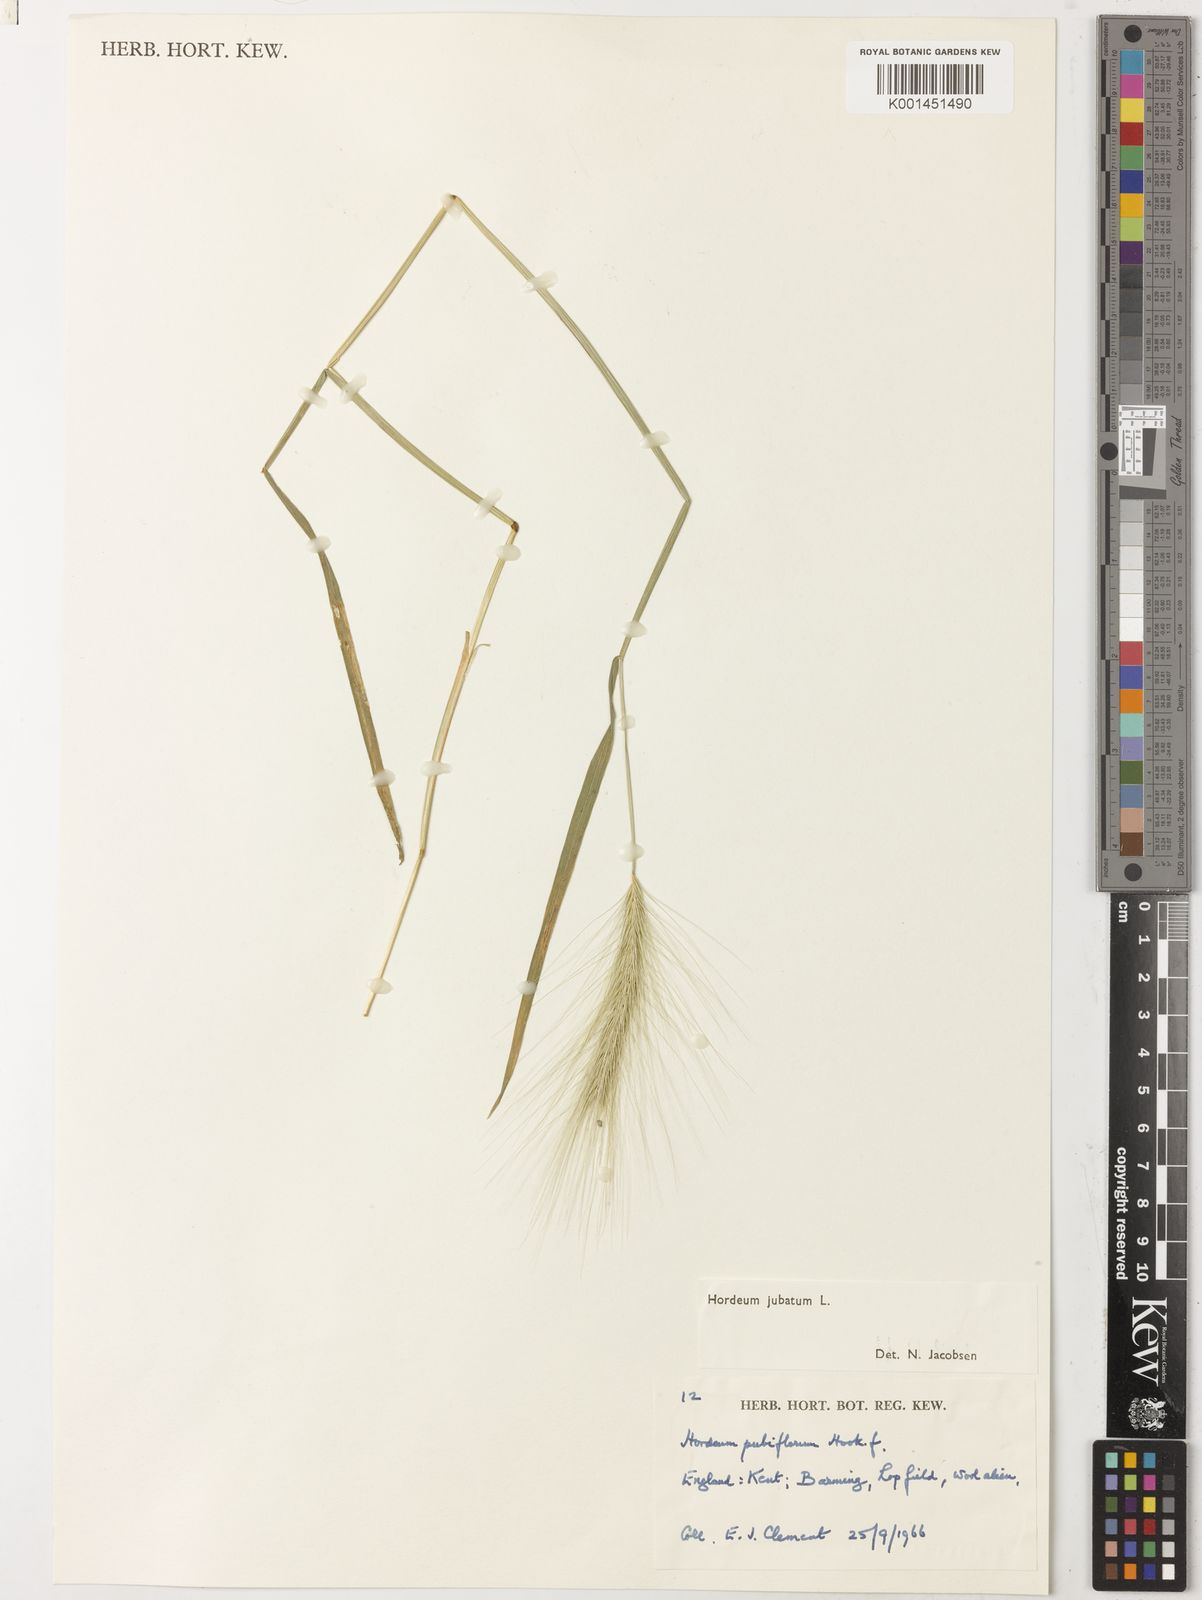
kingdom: Plantae
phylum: Tracheophyta
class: Liliopsida
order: Poales
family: Poaceae
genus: Hordeum
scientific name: Hordeum jubatum
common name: Foxtail barley
